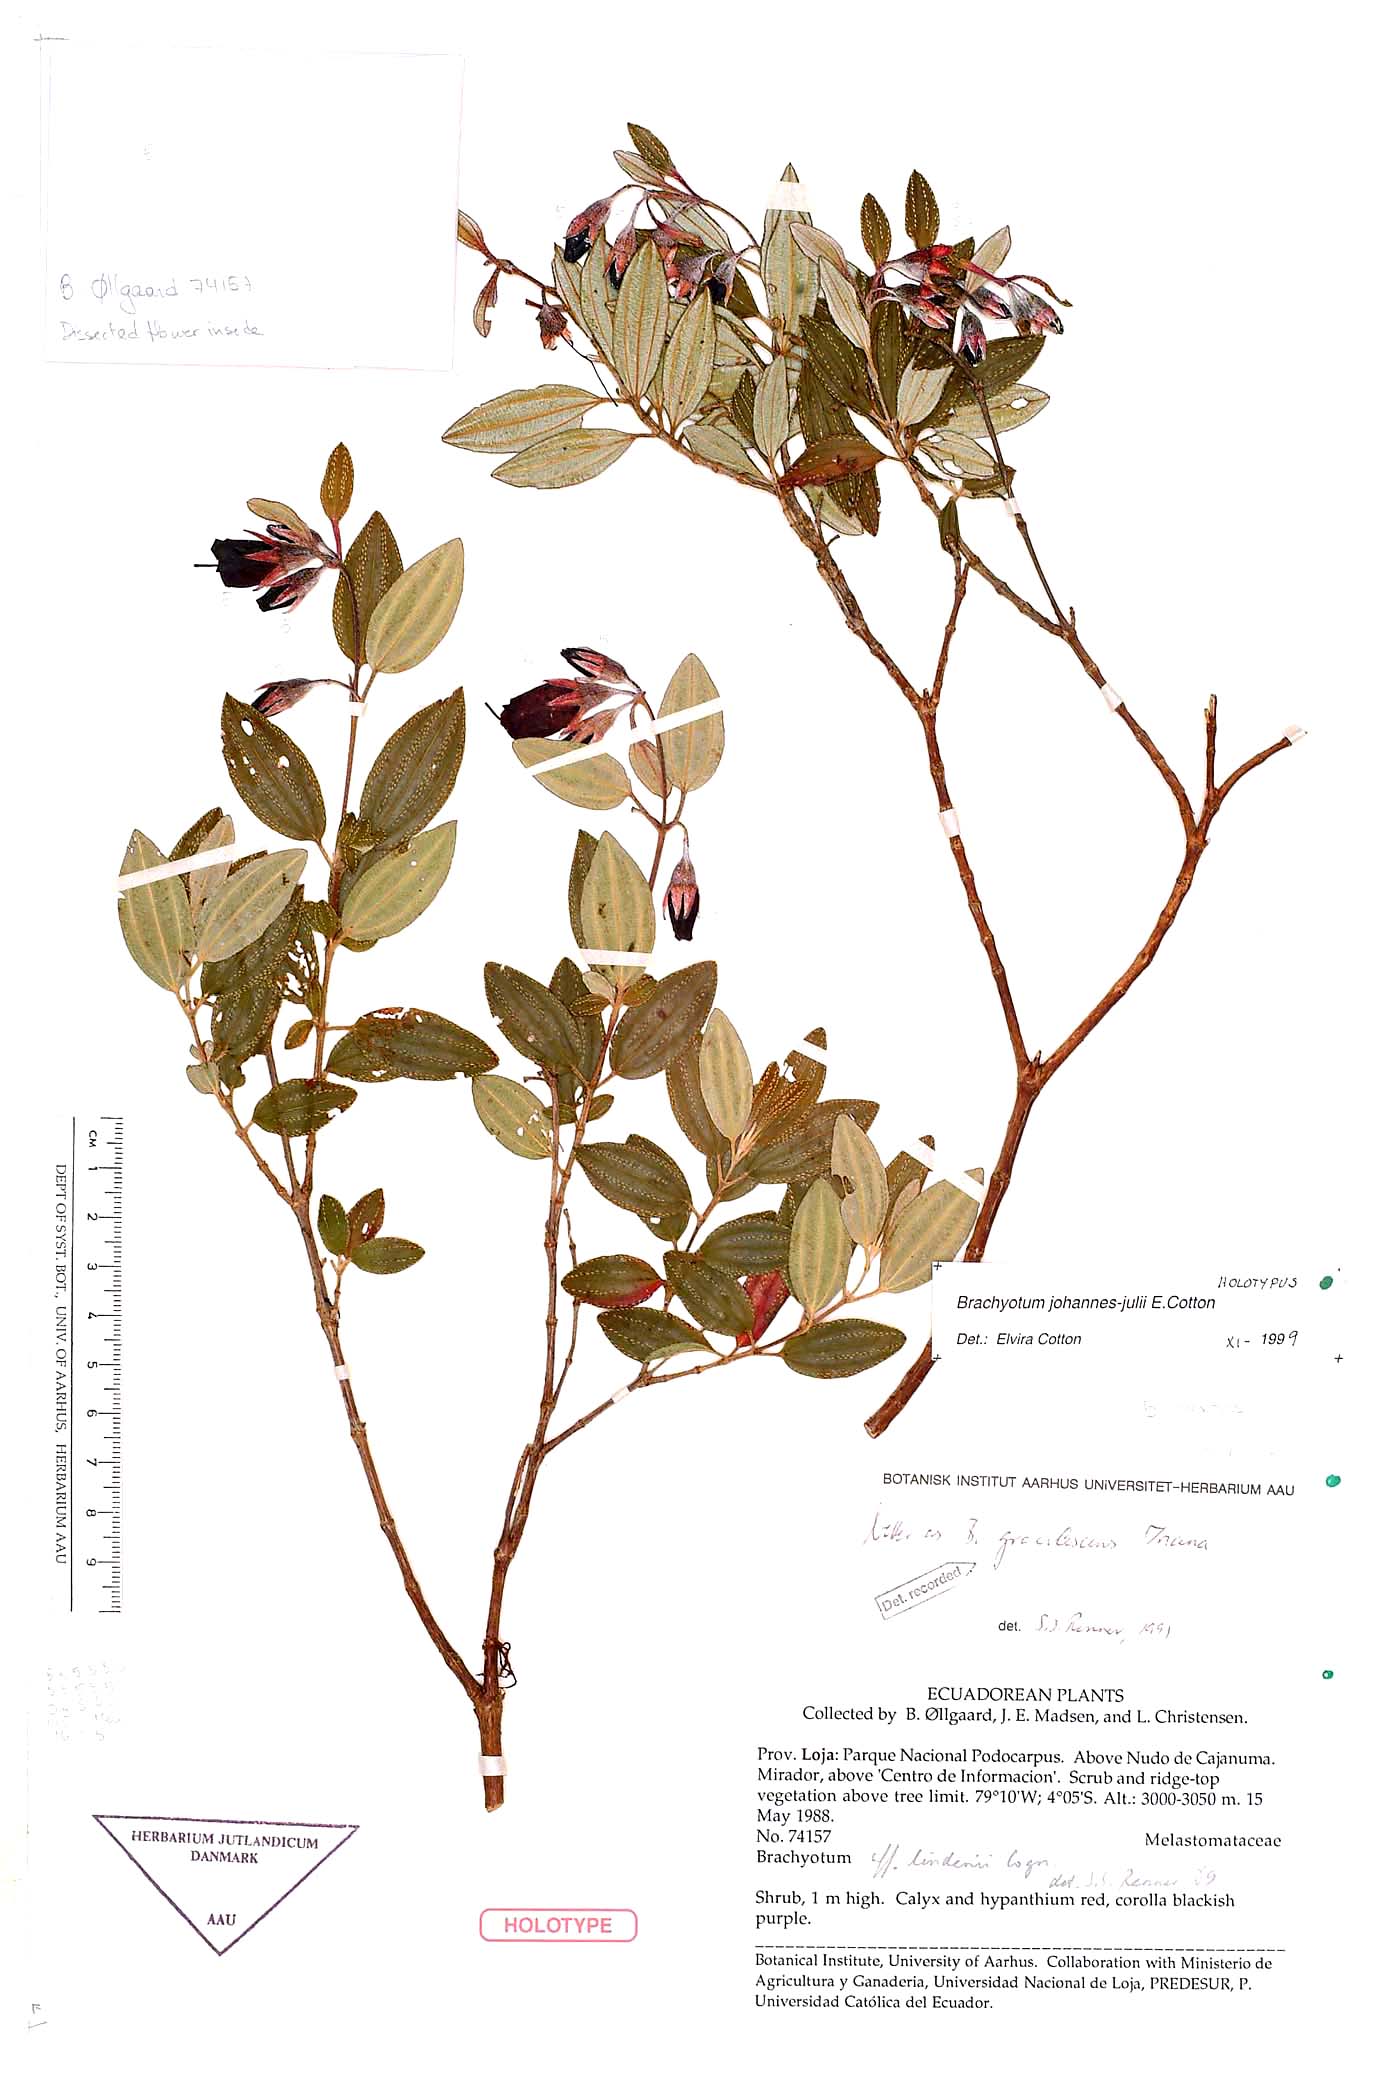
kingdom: Plantae
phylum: Tracheophyta
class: Magnoliopsida
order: Myrtales
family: Melastomataceae
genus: Brachyotum
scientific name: Brachyotum johannes-julii
